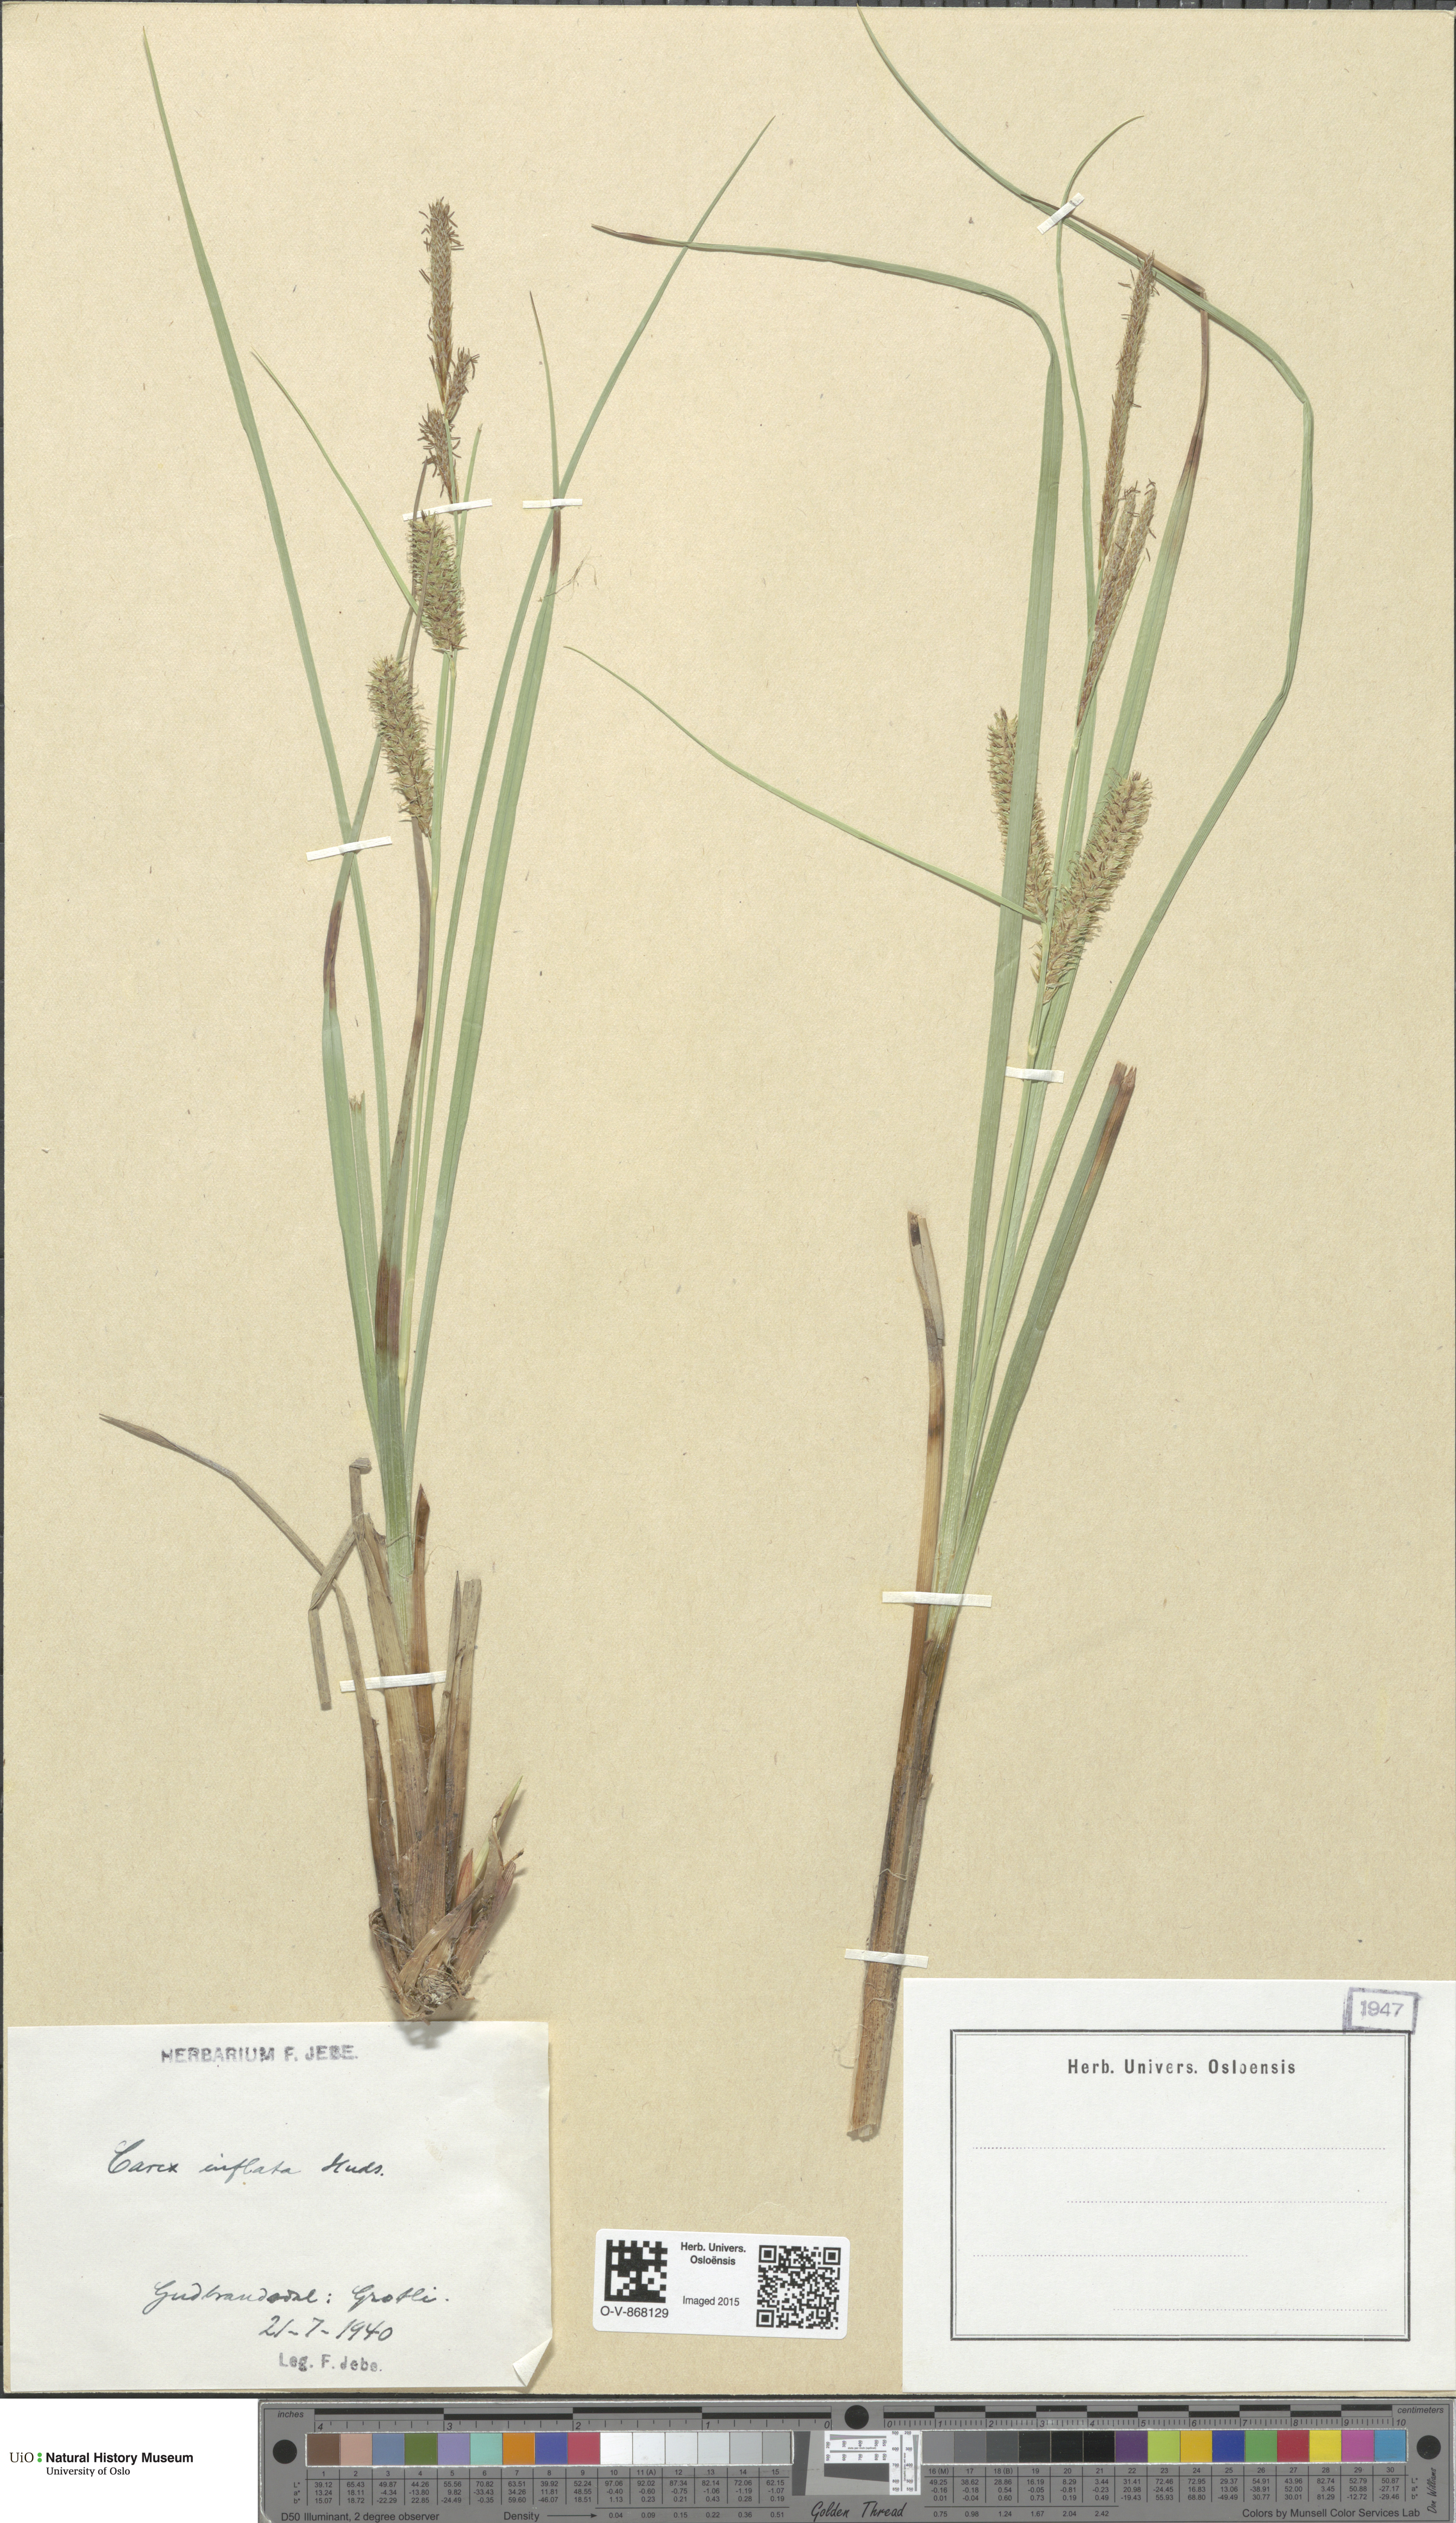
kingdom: Plantae
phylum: Tracheophyta
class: Liliopsida
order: Poales
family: Cyperaceae
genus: Carex
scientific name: Carex rostrata
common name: Bottle sedge
